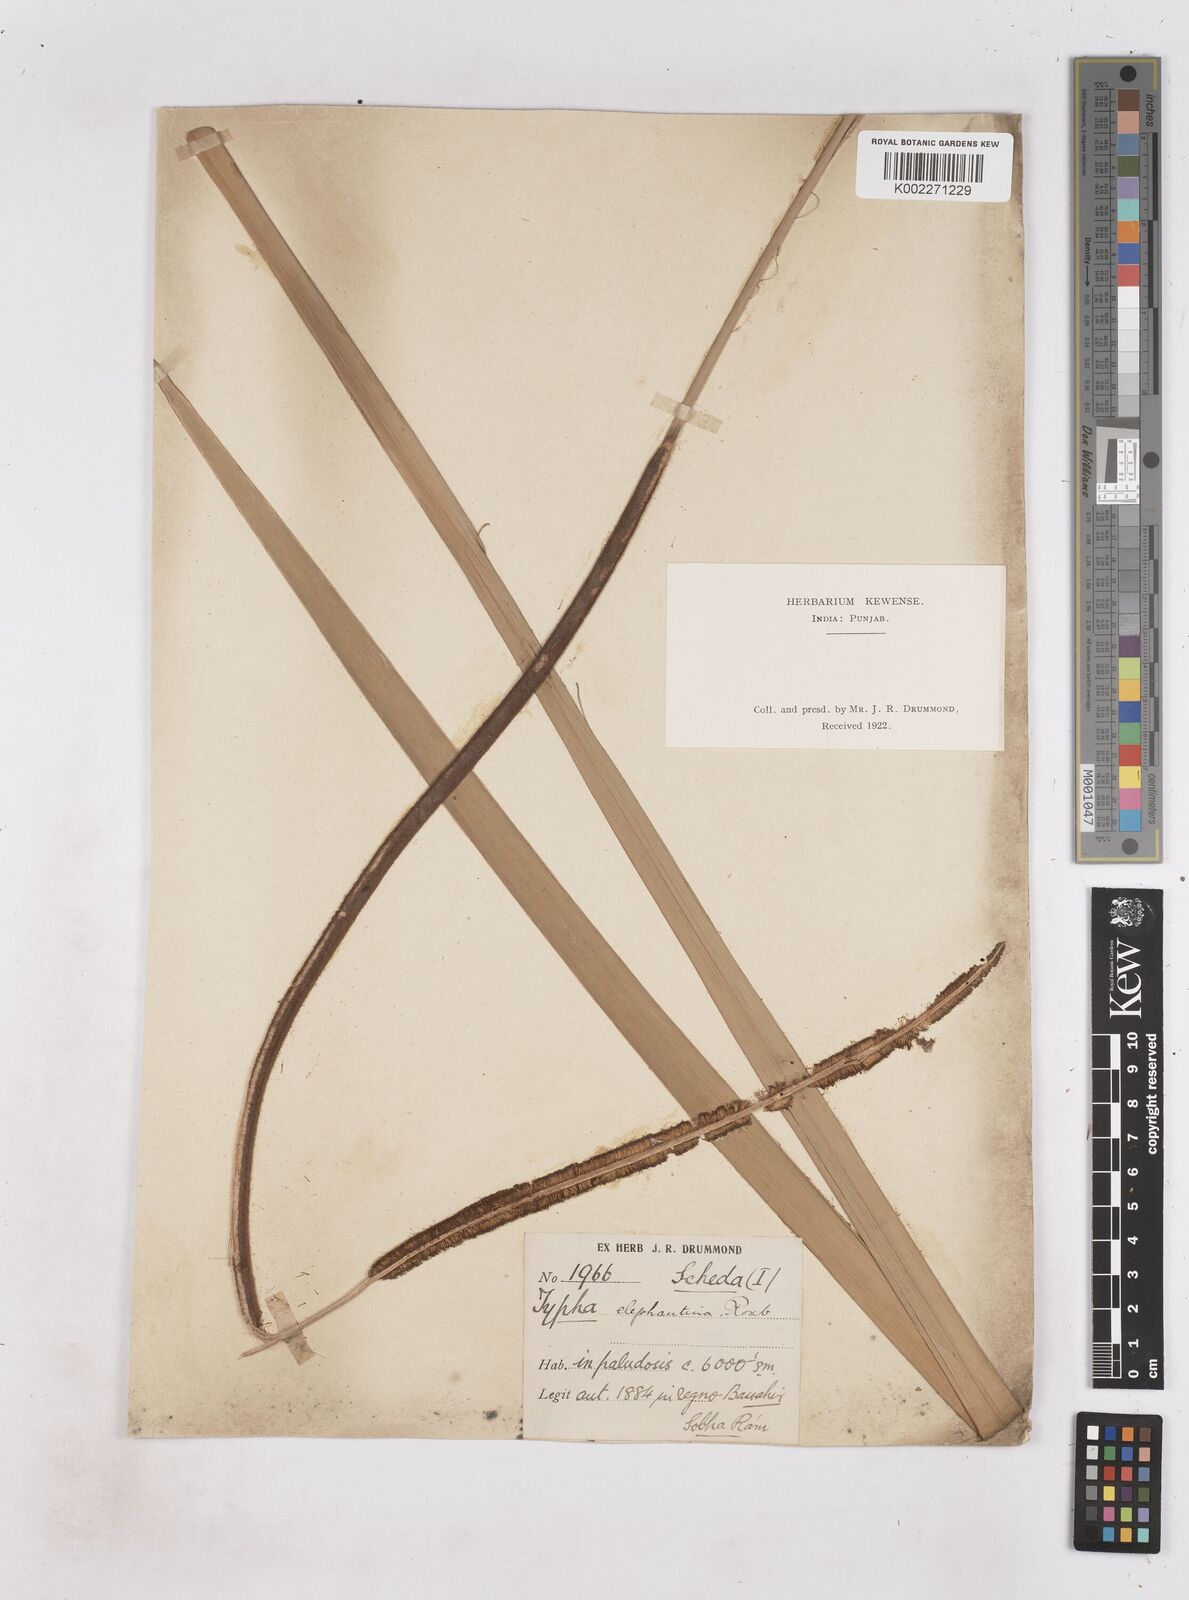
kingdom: Plantae
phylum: Tracheophyta
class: Liliopsida
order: Poales
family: Typhaceae
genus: Typha
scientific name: Typha elephantina
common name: Indian reed-grass
